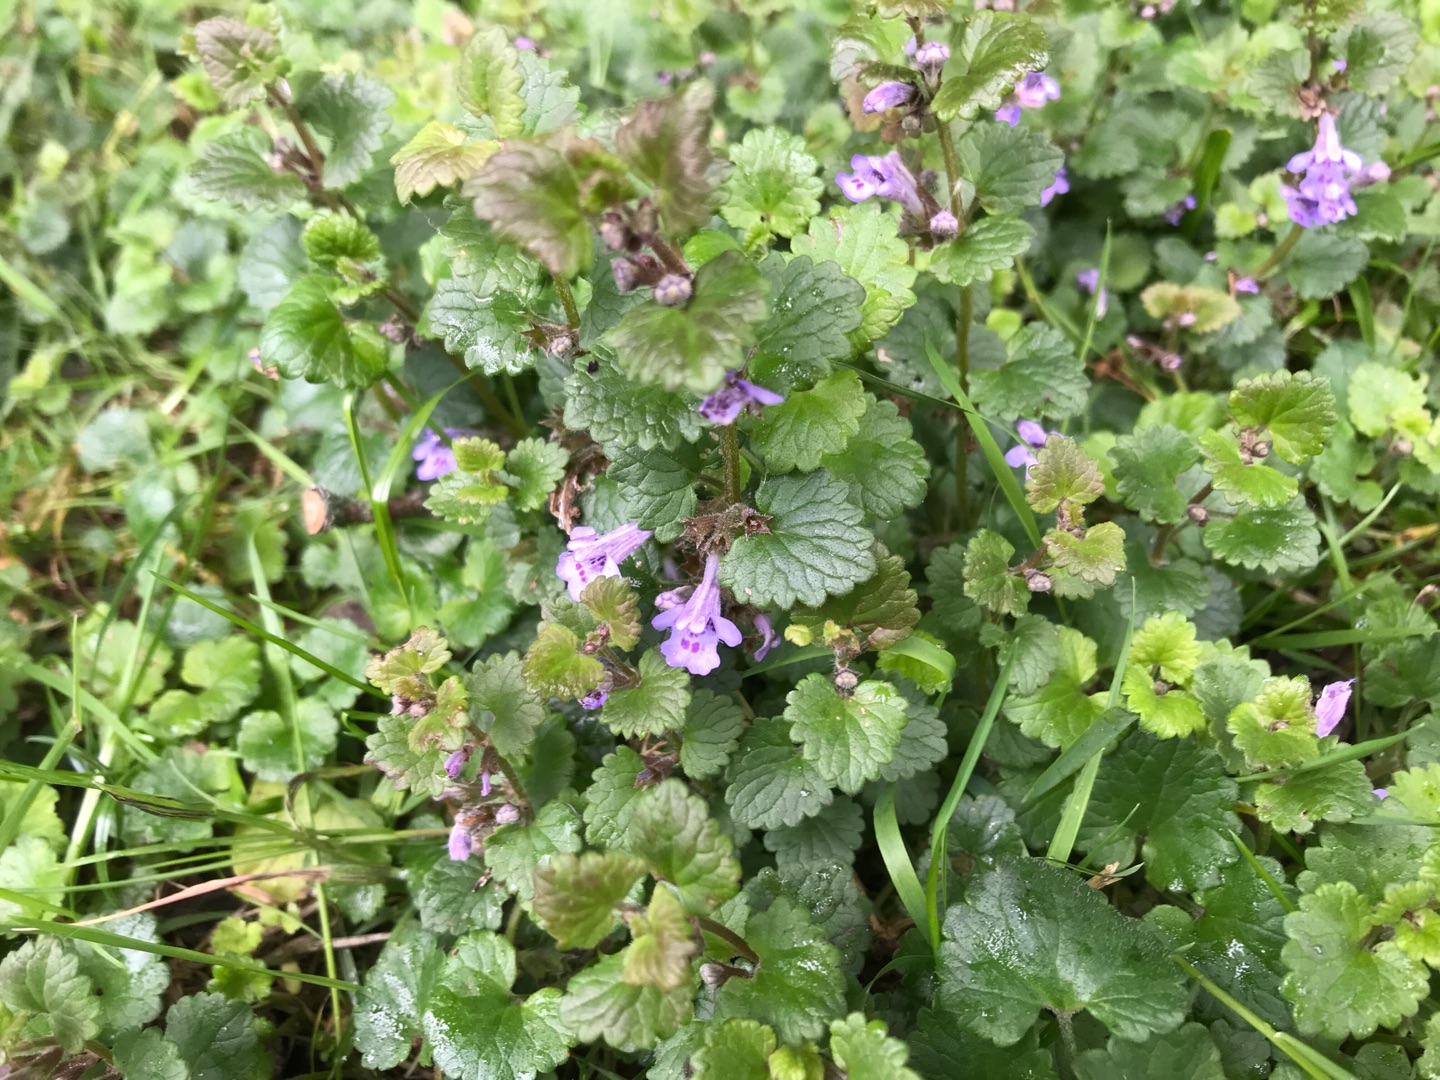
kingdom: Plantae
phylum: Tracheophyta
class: Magnoliopsida
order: Lamiales
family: Lamiaceae
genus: Glechoma
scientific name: Glechoma hederacea
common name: Korsknap
